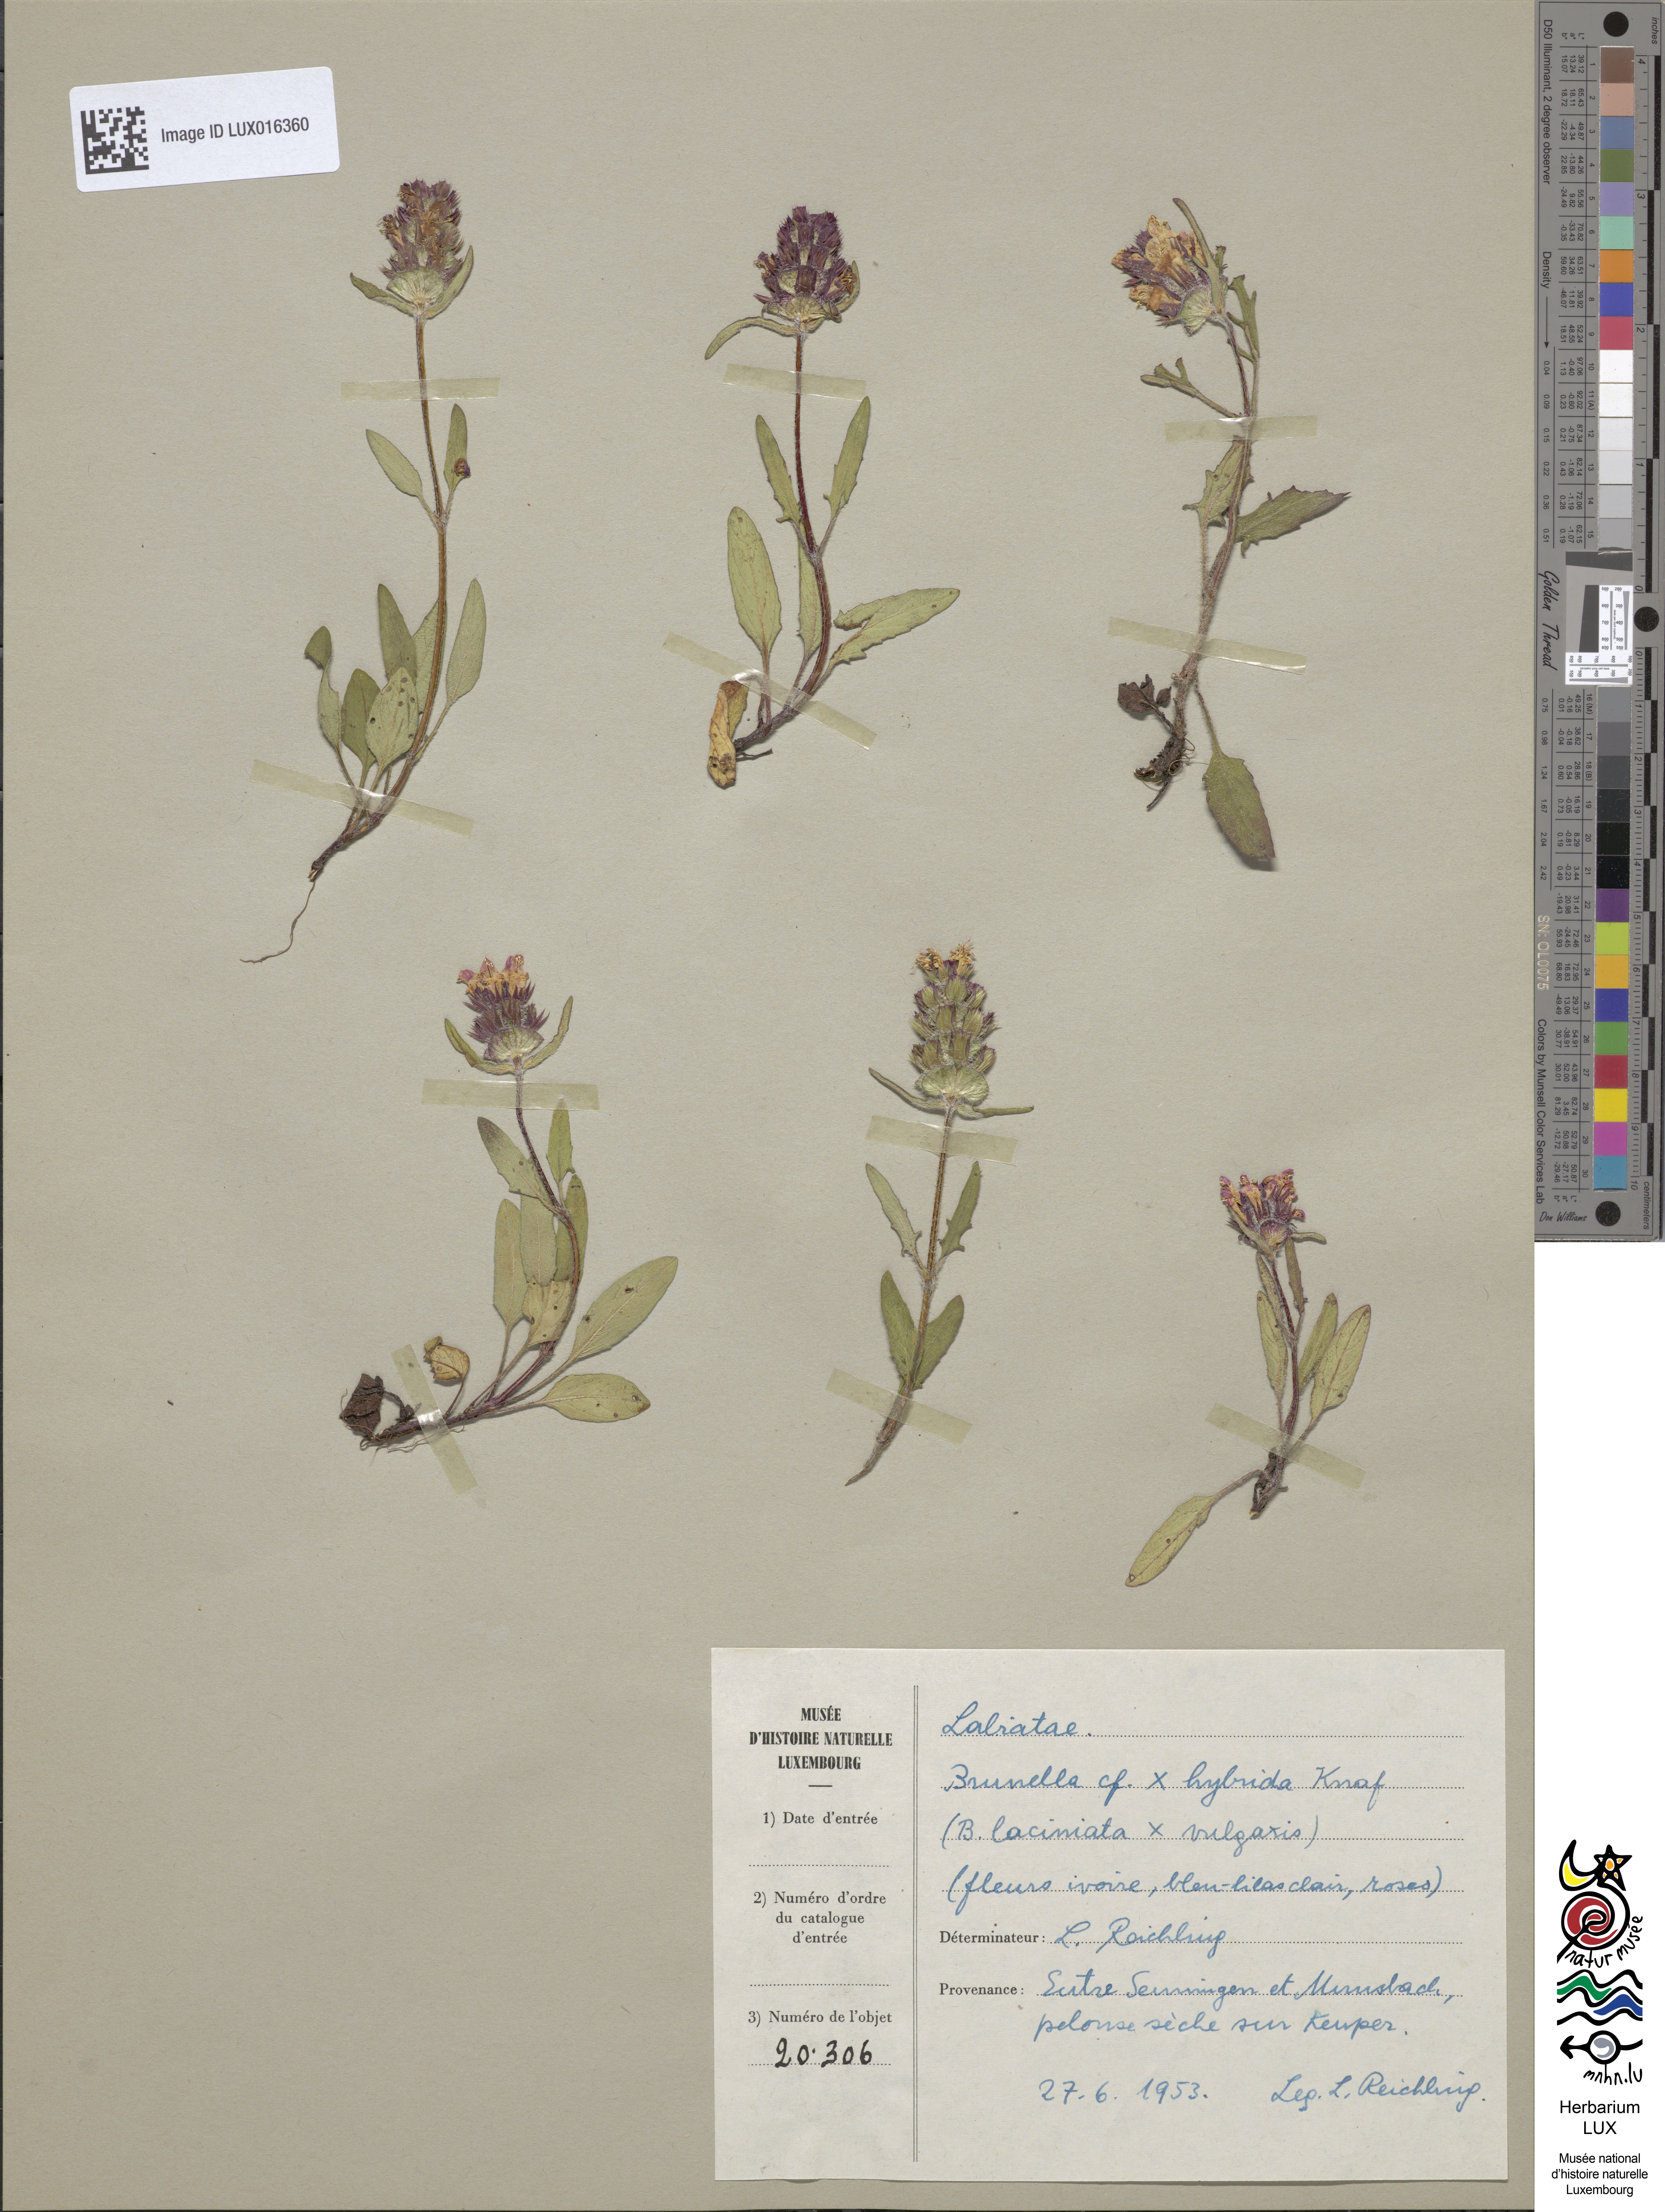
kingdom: Animalia
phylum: Chordata
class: Aves
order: Passeriformes
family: Prunellidae
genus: Prunella
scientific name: Prunella
